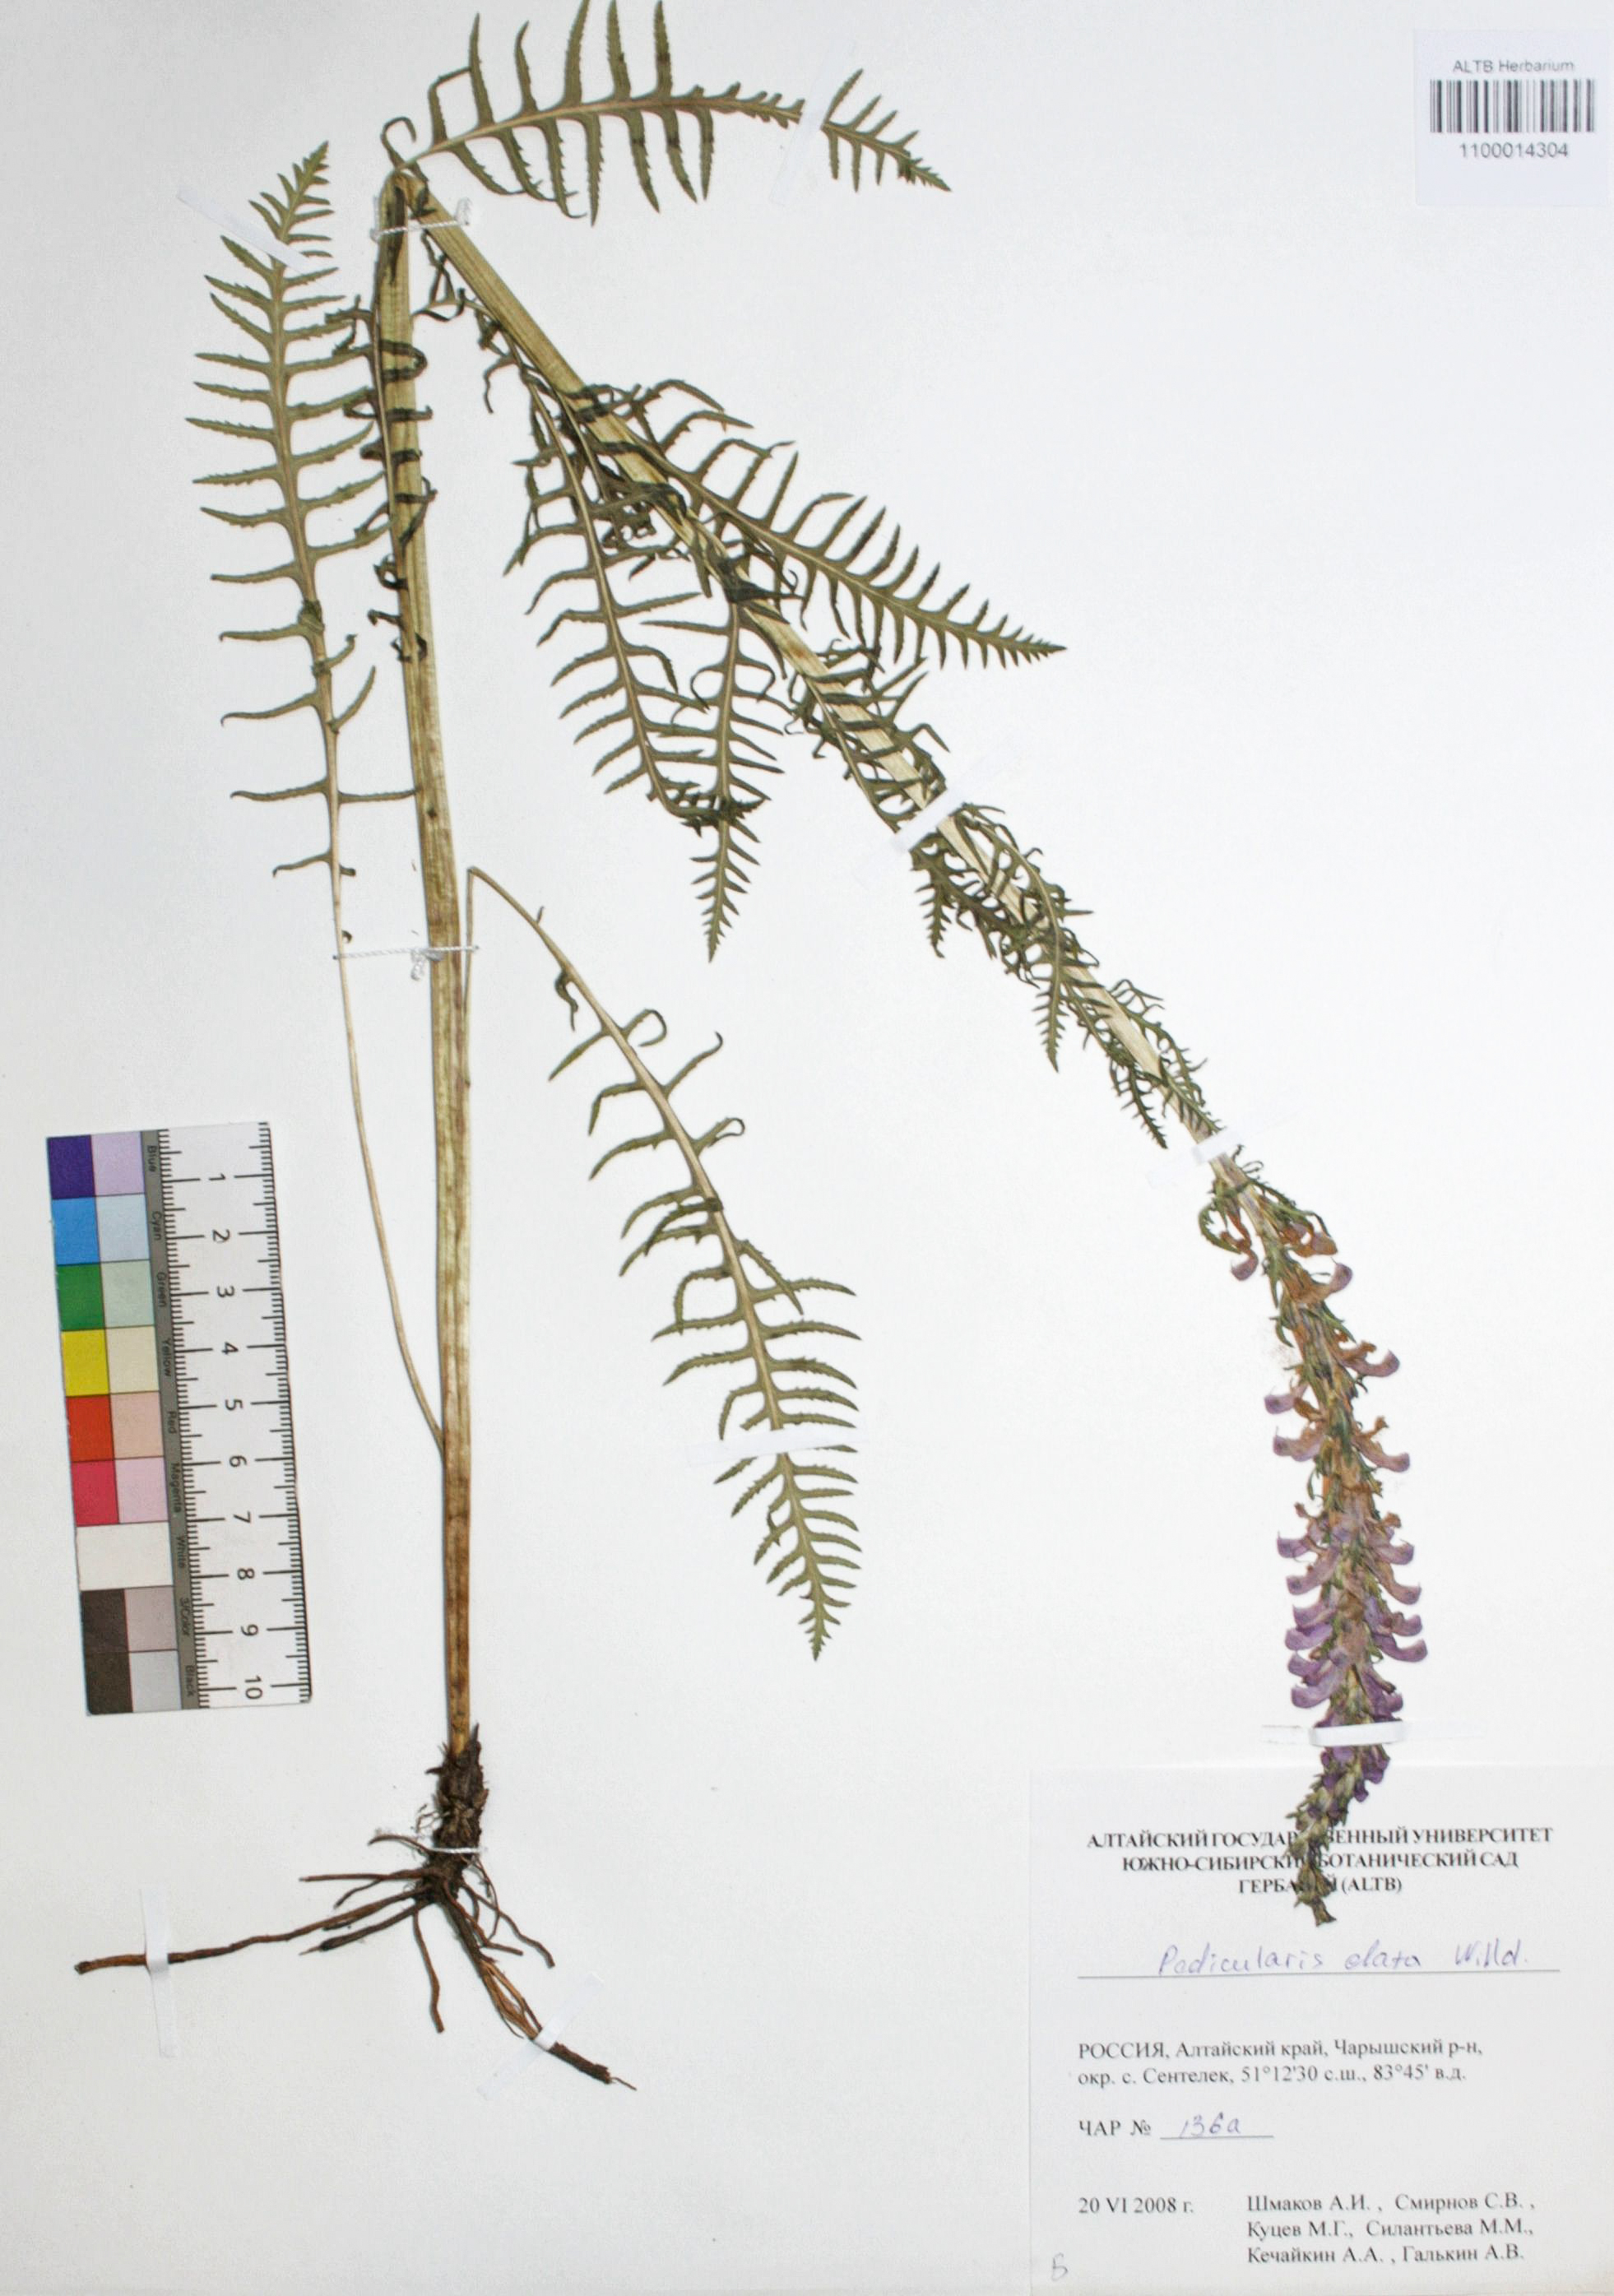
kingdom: Plantae
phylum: Tracheophyta
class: Magnoliopsida
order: Lamiales
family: Orobanchaceae
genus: Pedicularis
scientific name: Pedicularis elata
